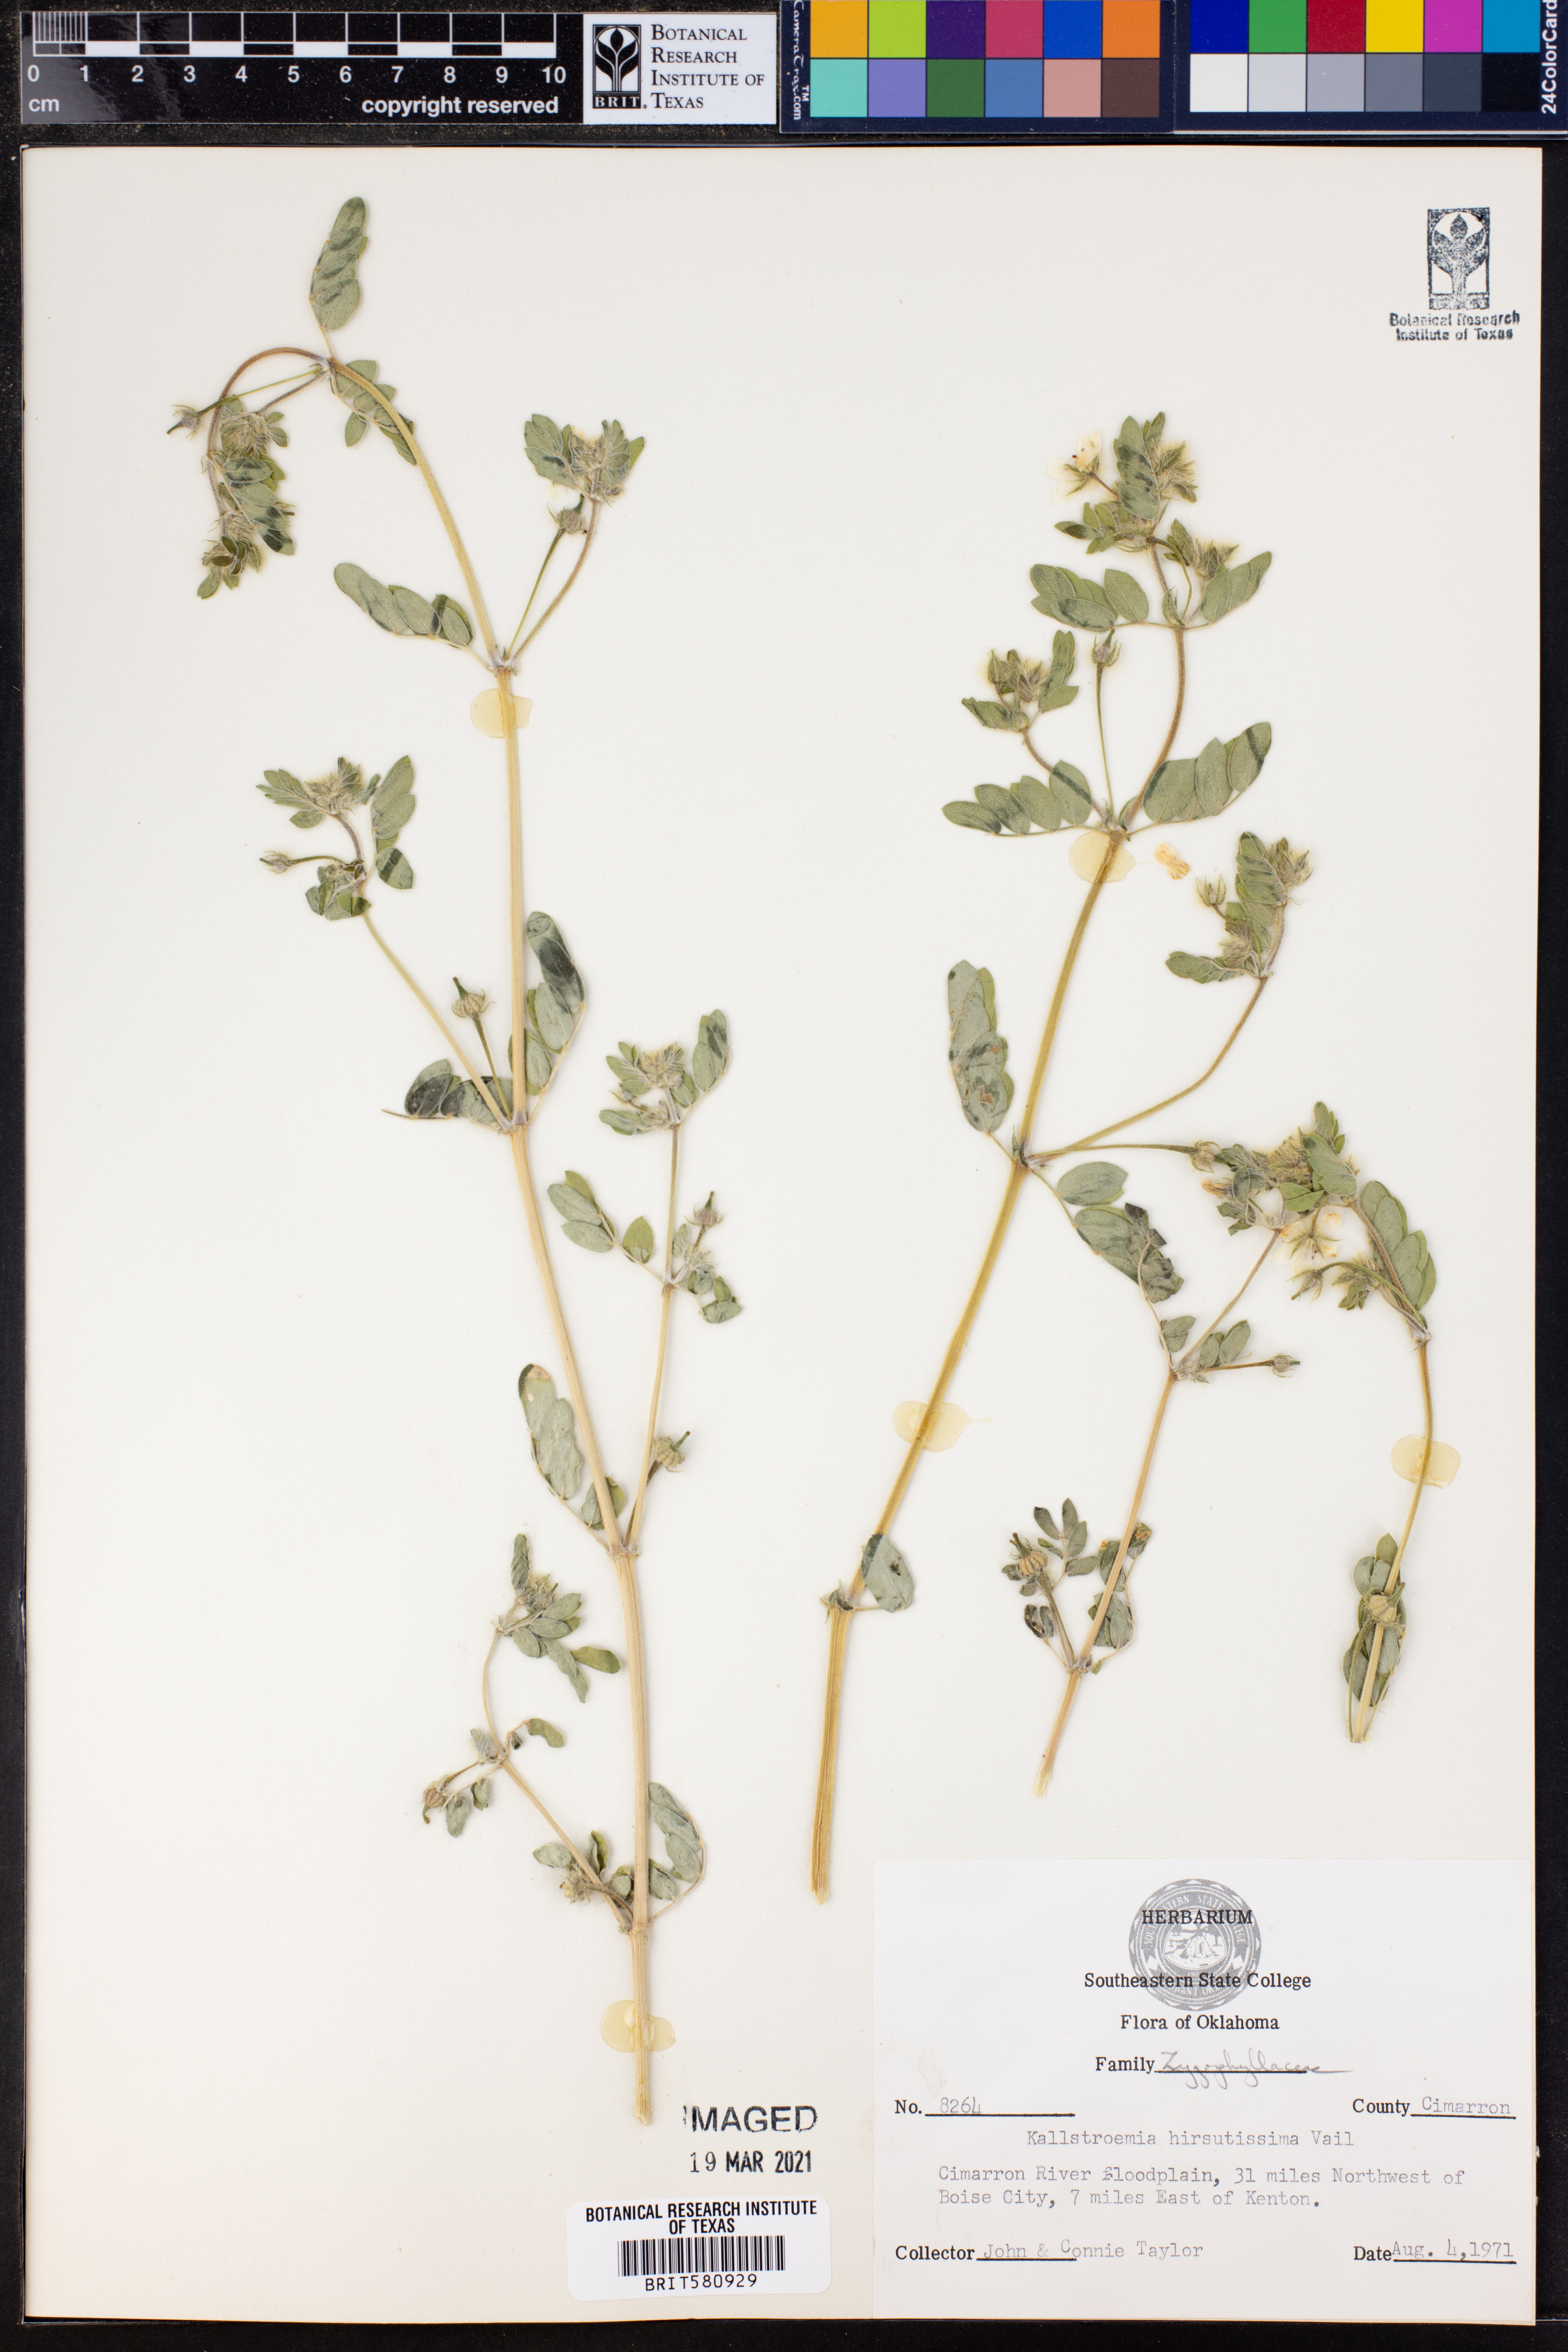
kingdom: Plantae
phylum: Tracheophyta
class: Magnoliopsida
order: Zygophyllales
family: Zygophyllaceae
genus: Kallstroemia
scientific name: Kallstroemia hirsutissima
